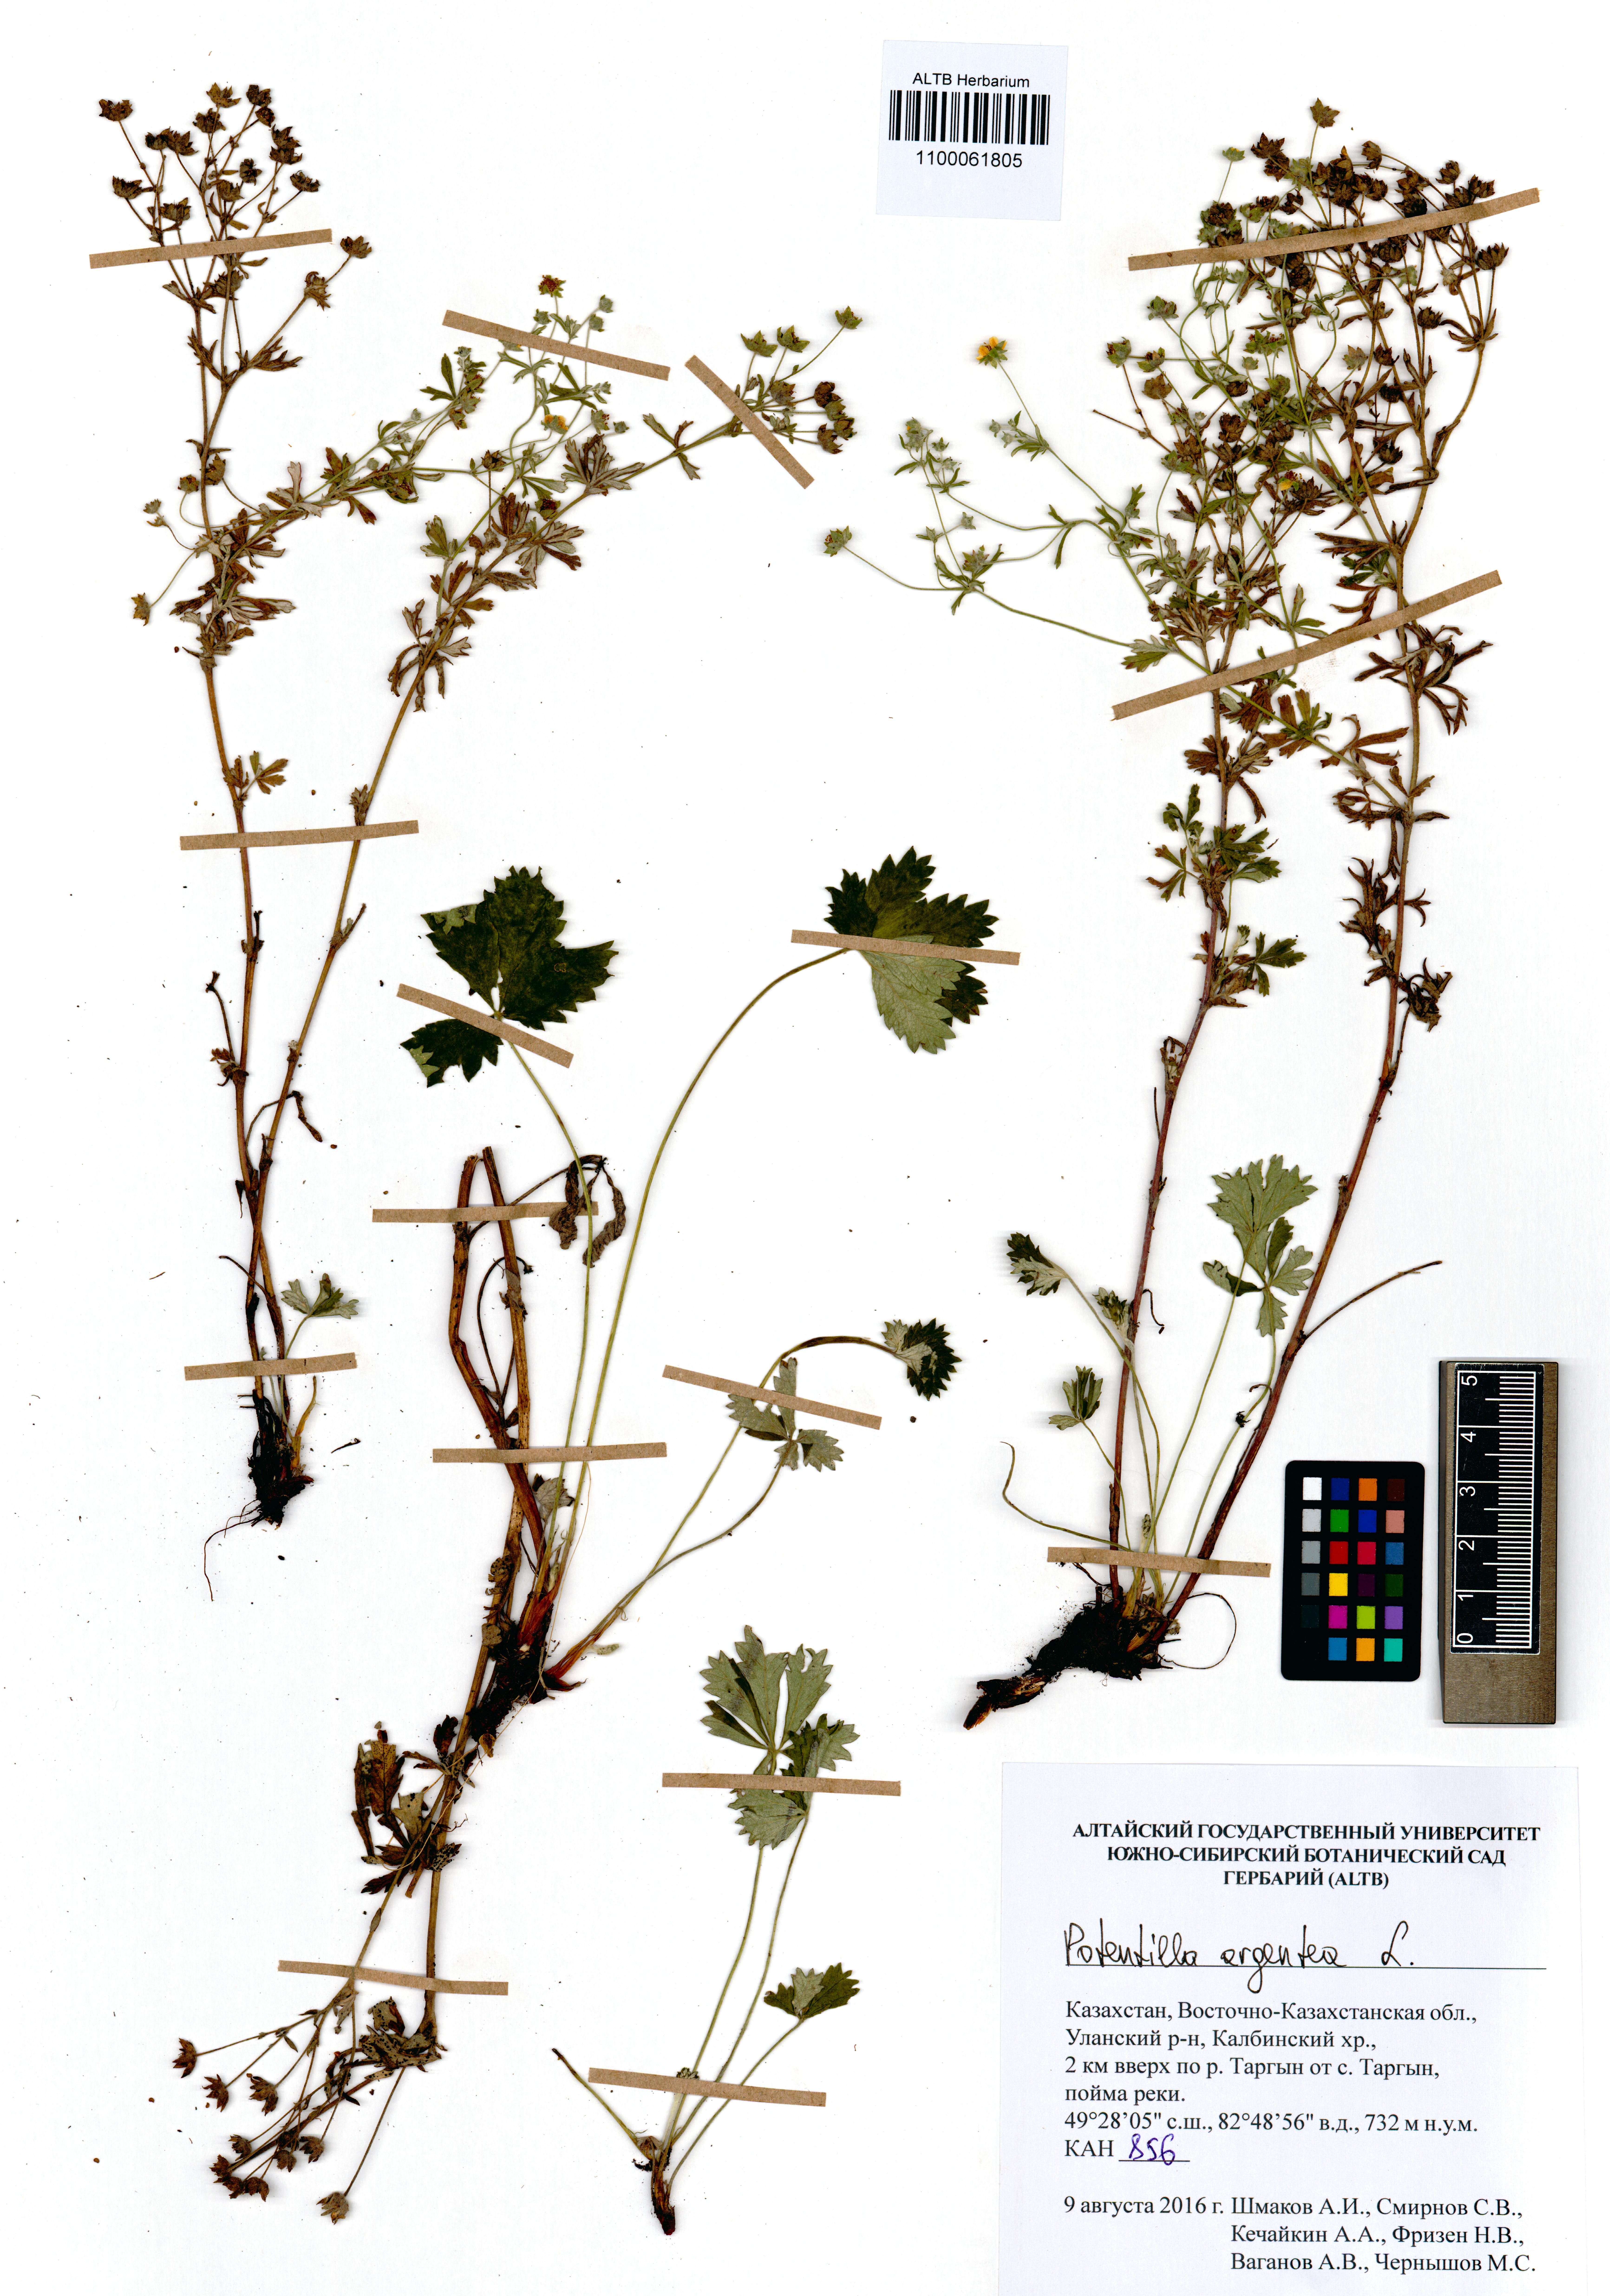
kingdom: Plantae
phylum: Tracheophyta
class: Magnoliopsida
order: Rosales
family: Rosaceae
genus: Potentilla
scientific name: Potentilla argentea
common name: Hoary cinquefoil
